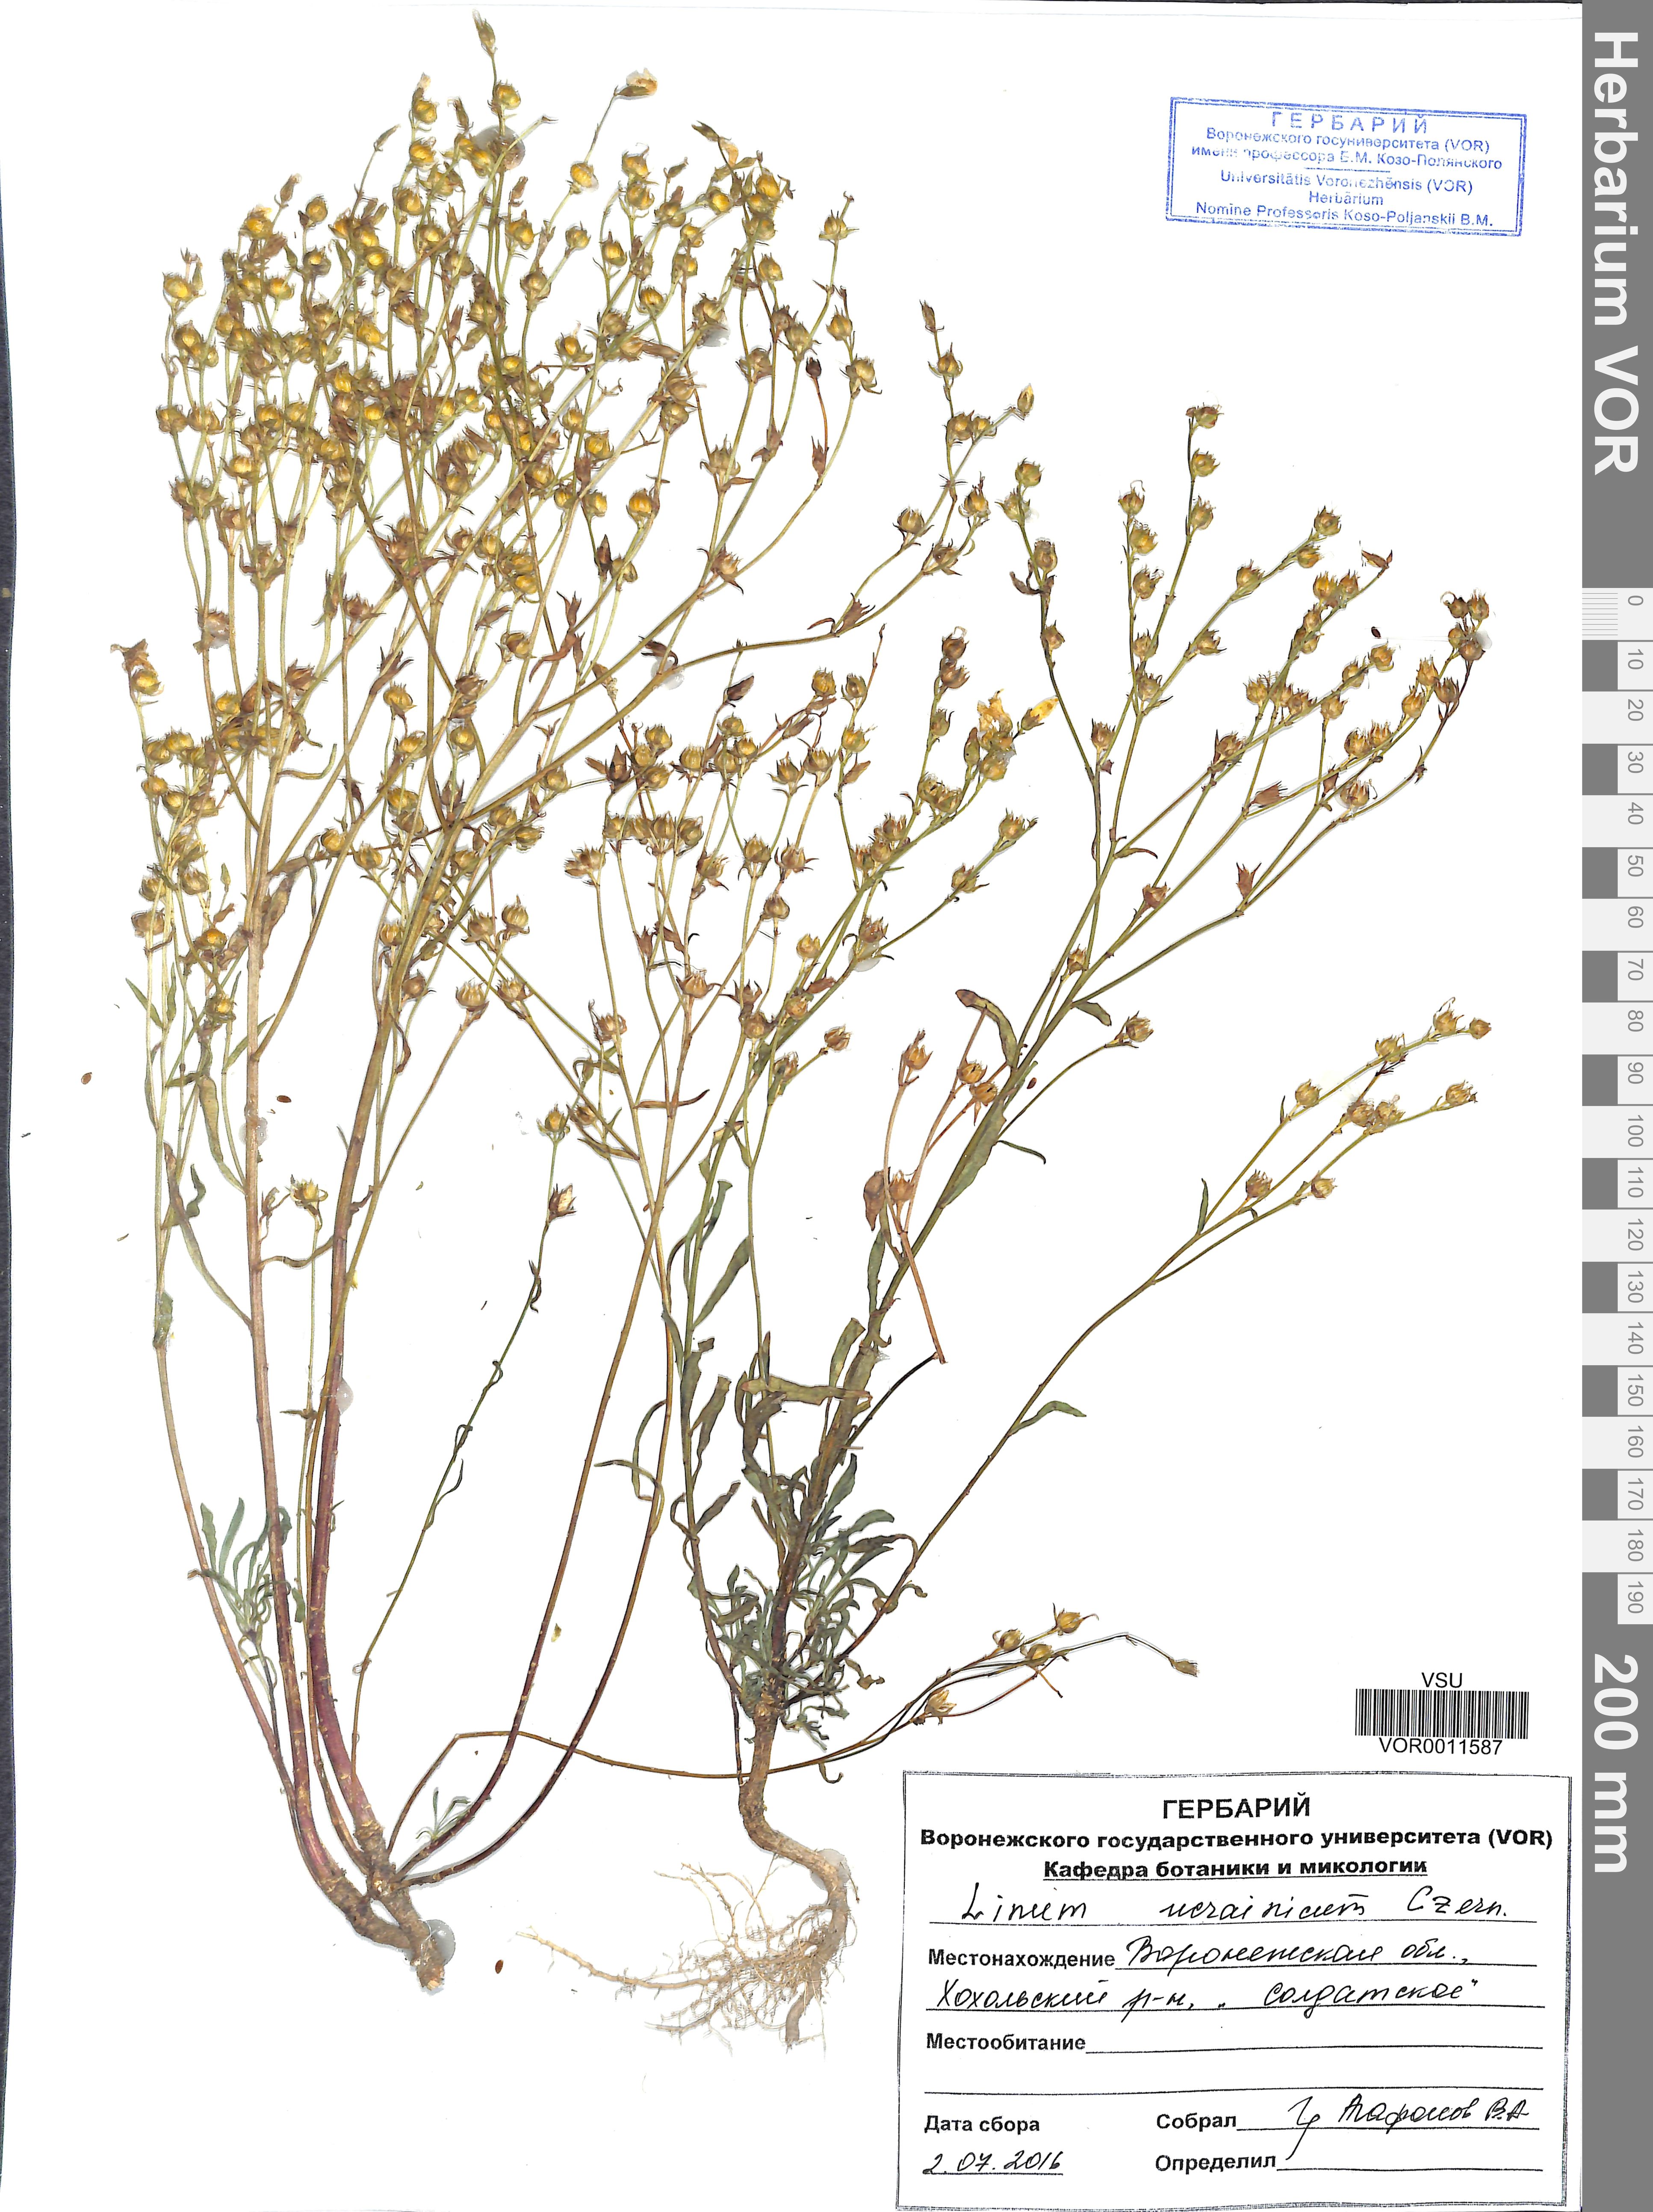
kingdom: Plantae
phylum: Tracheophyta
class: Magnoliopsida
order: Malpighiales
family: Linaceae
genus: Linum
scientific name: Linum ucranicum
